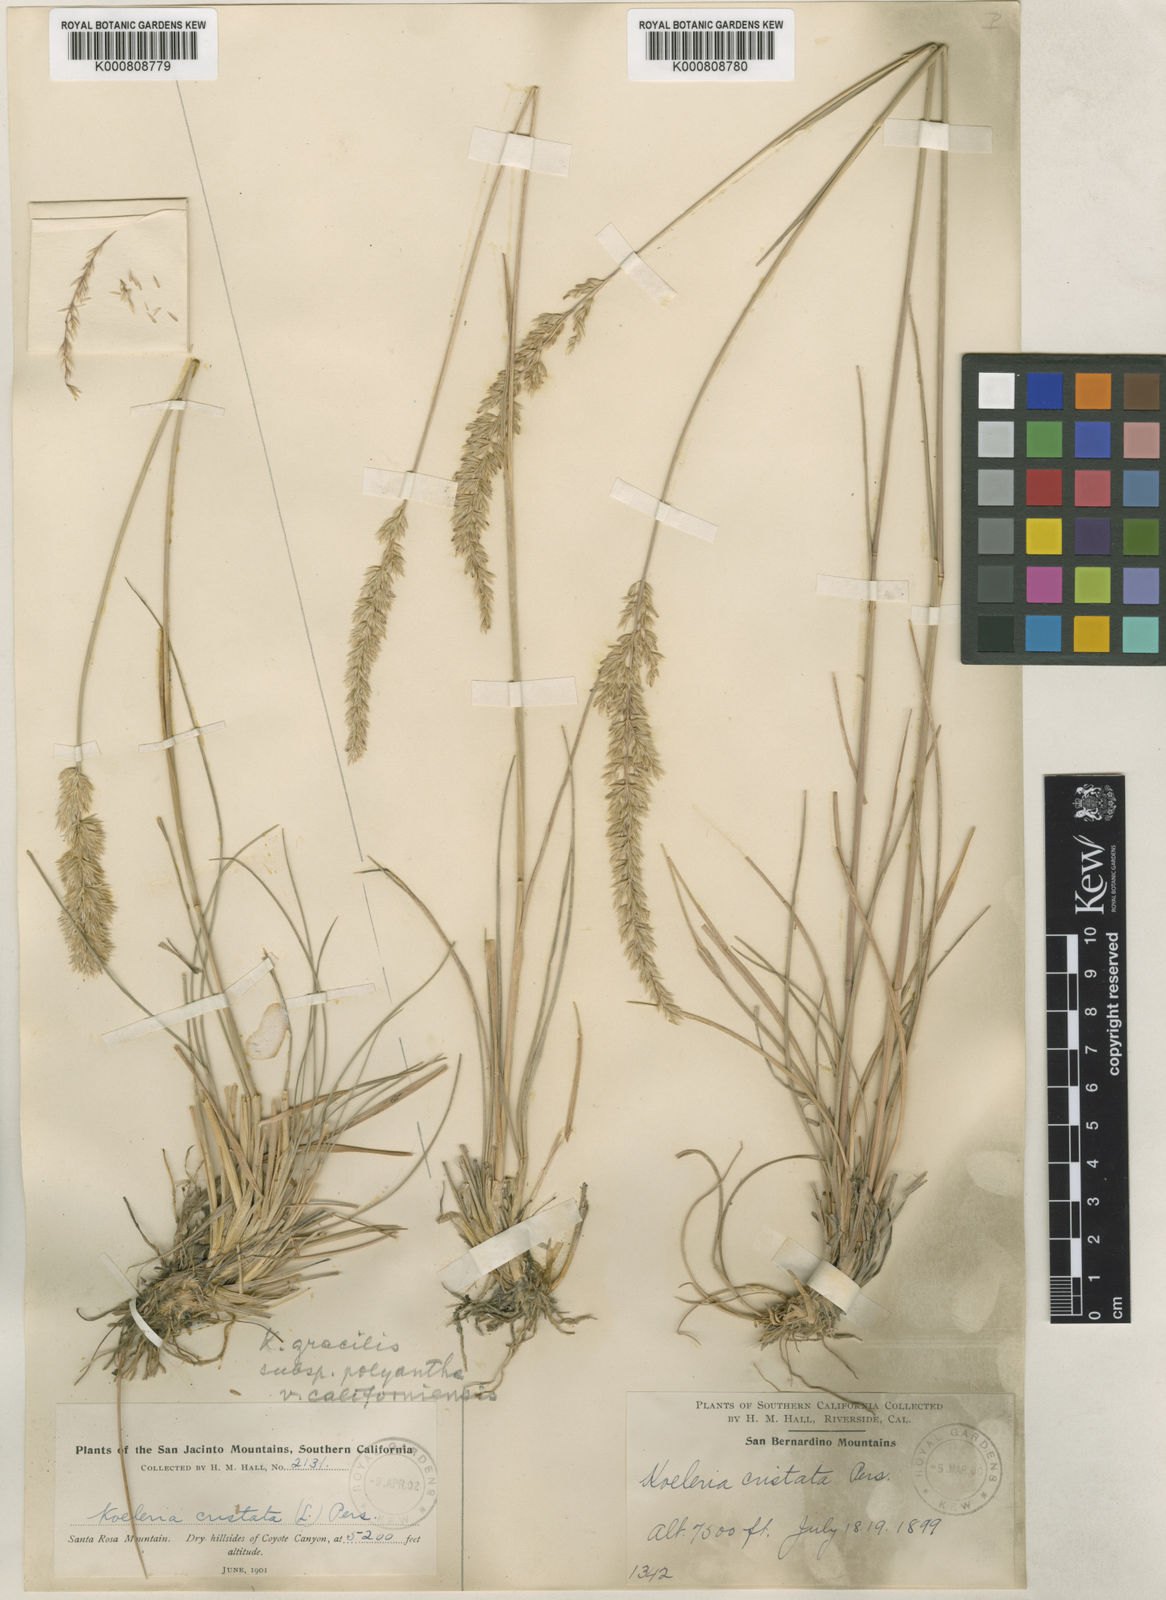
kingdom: Plantae
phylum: Tracheophyta
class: Liliopsida
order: Poales
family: Poaceae
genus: Koeleria
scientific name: Koeleria macrantha
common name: Crested hair-grass
